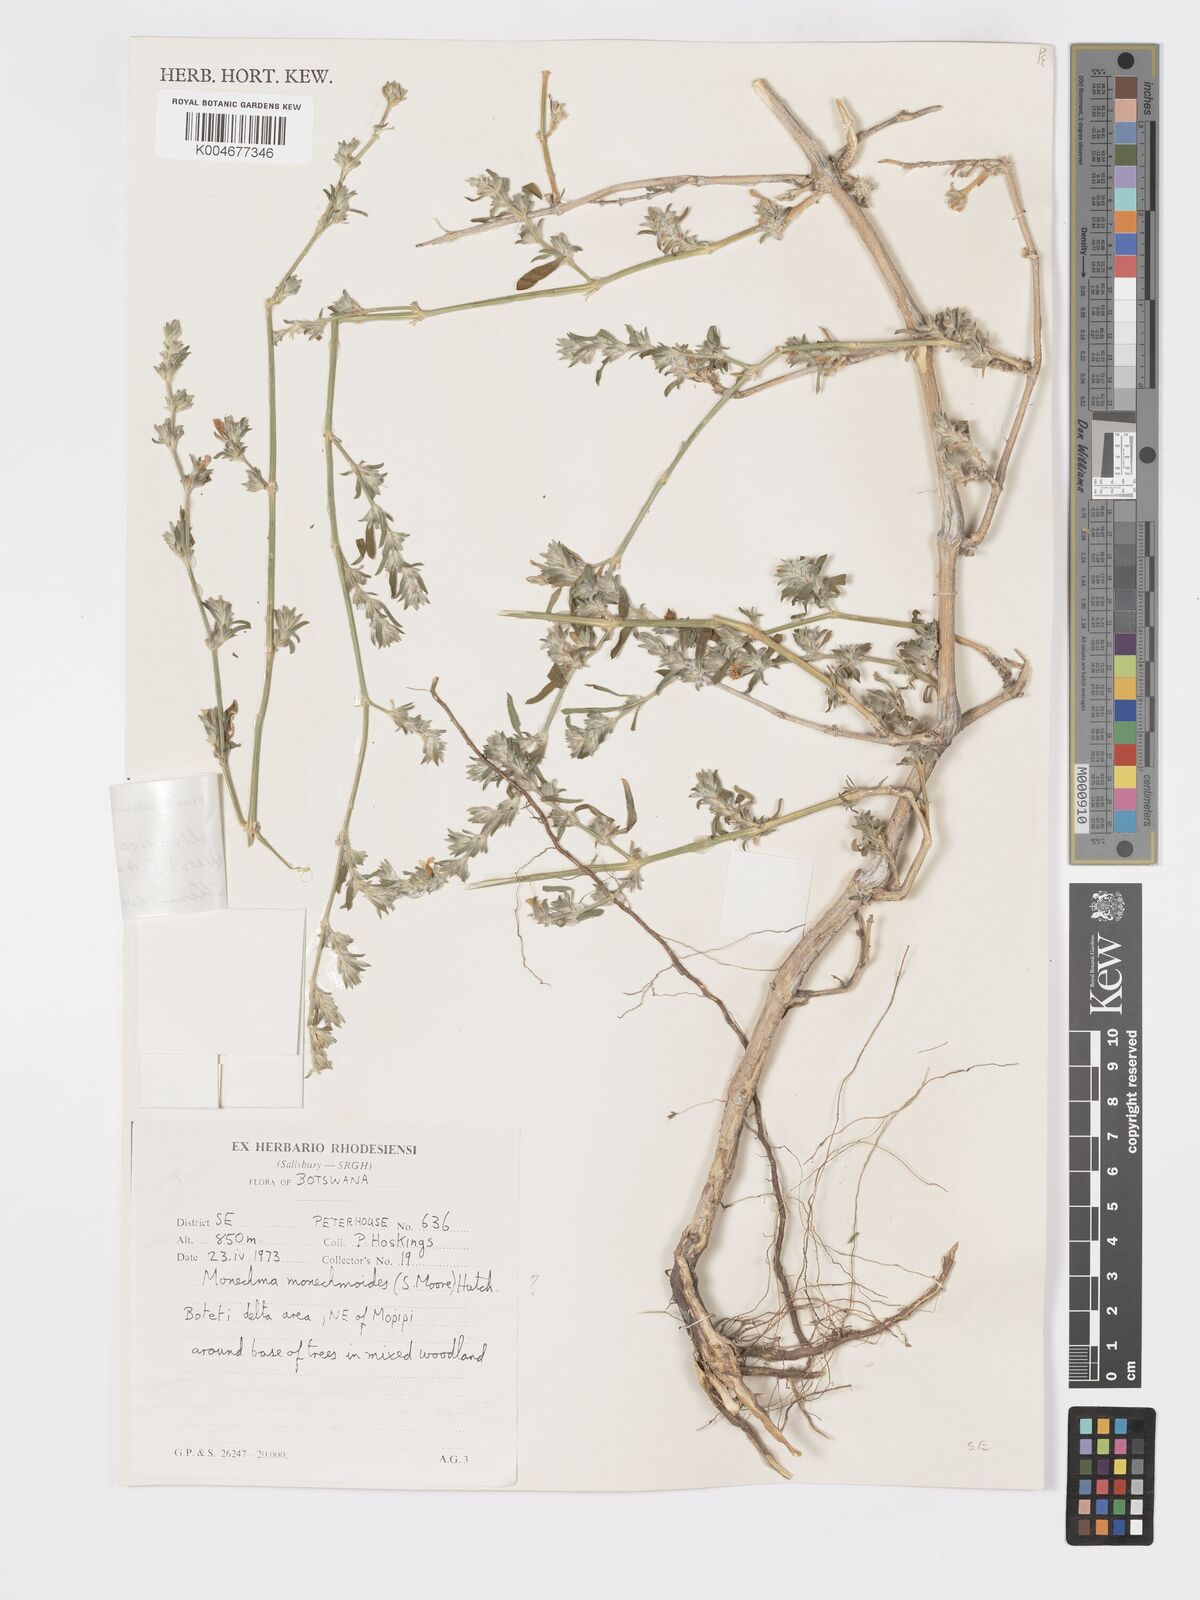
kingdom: Plantae
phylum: Tracheophyta
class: Magnoliopsida
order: Lamiales
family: Acanthaceae
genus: Pogonospermum
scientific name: Pogonospermum
